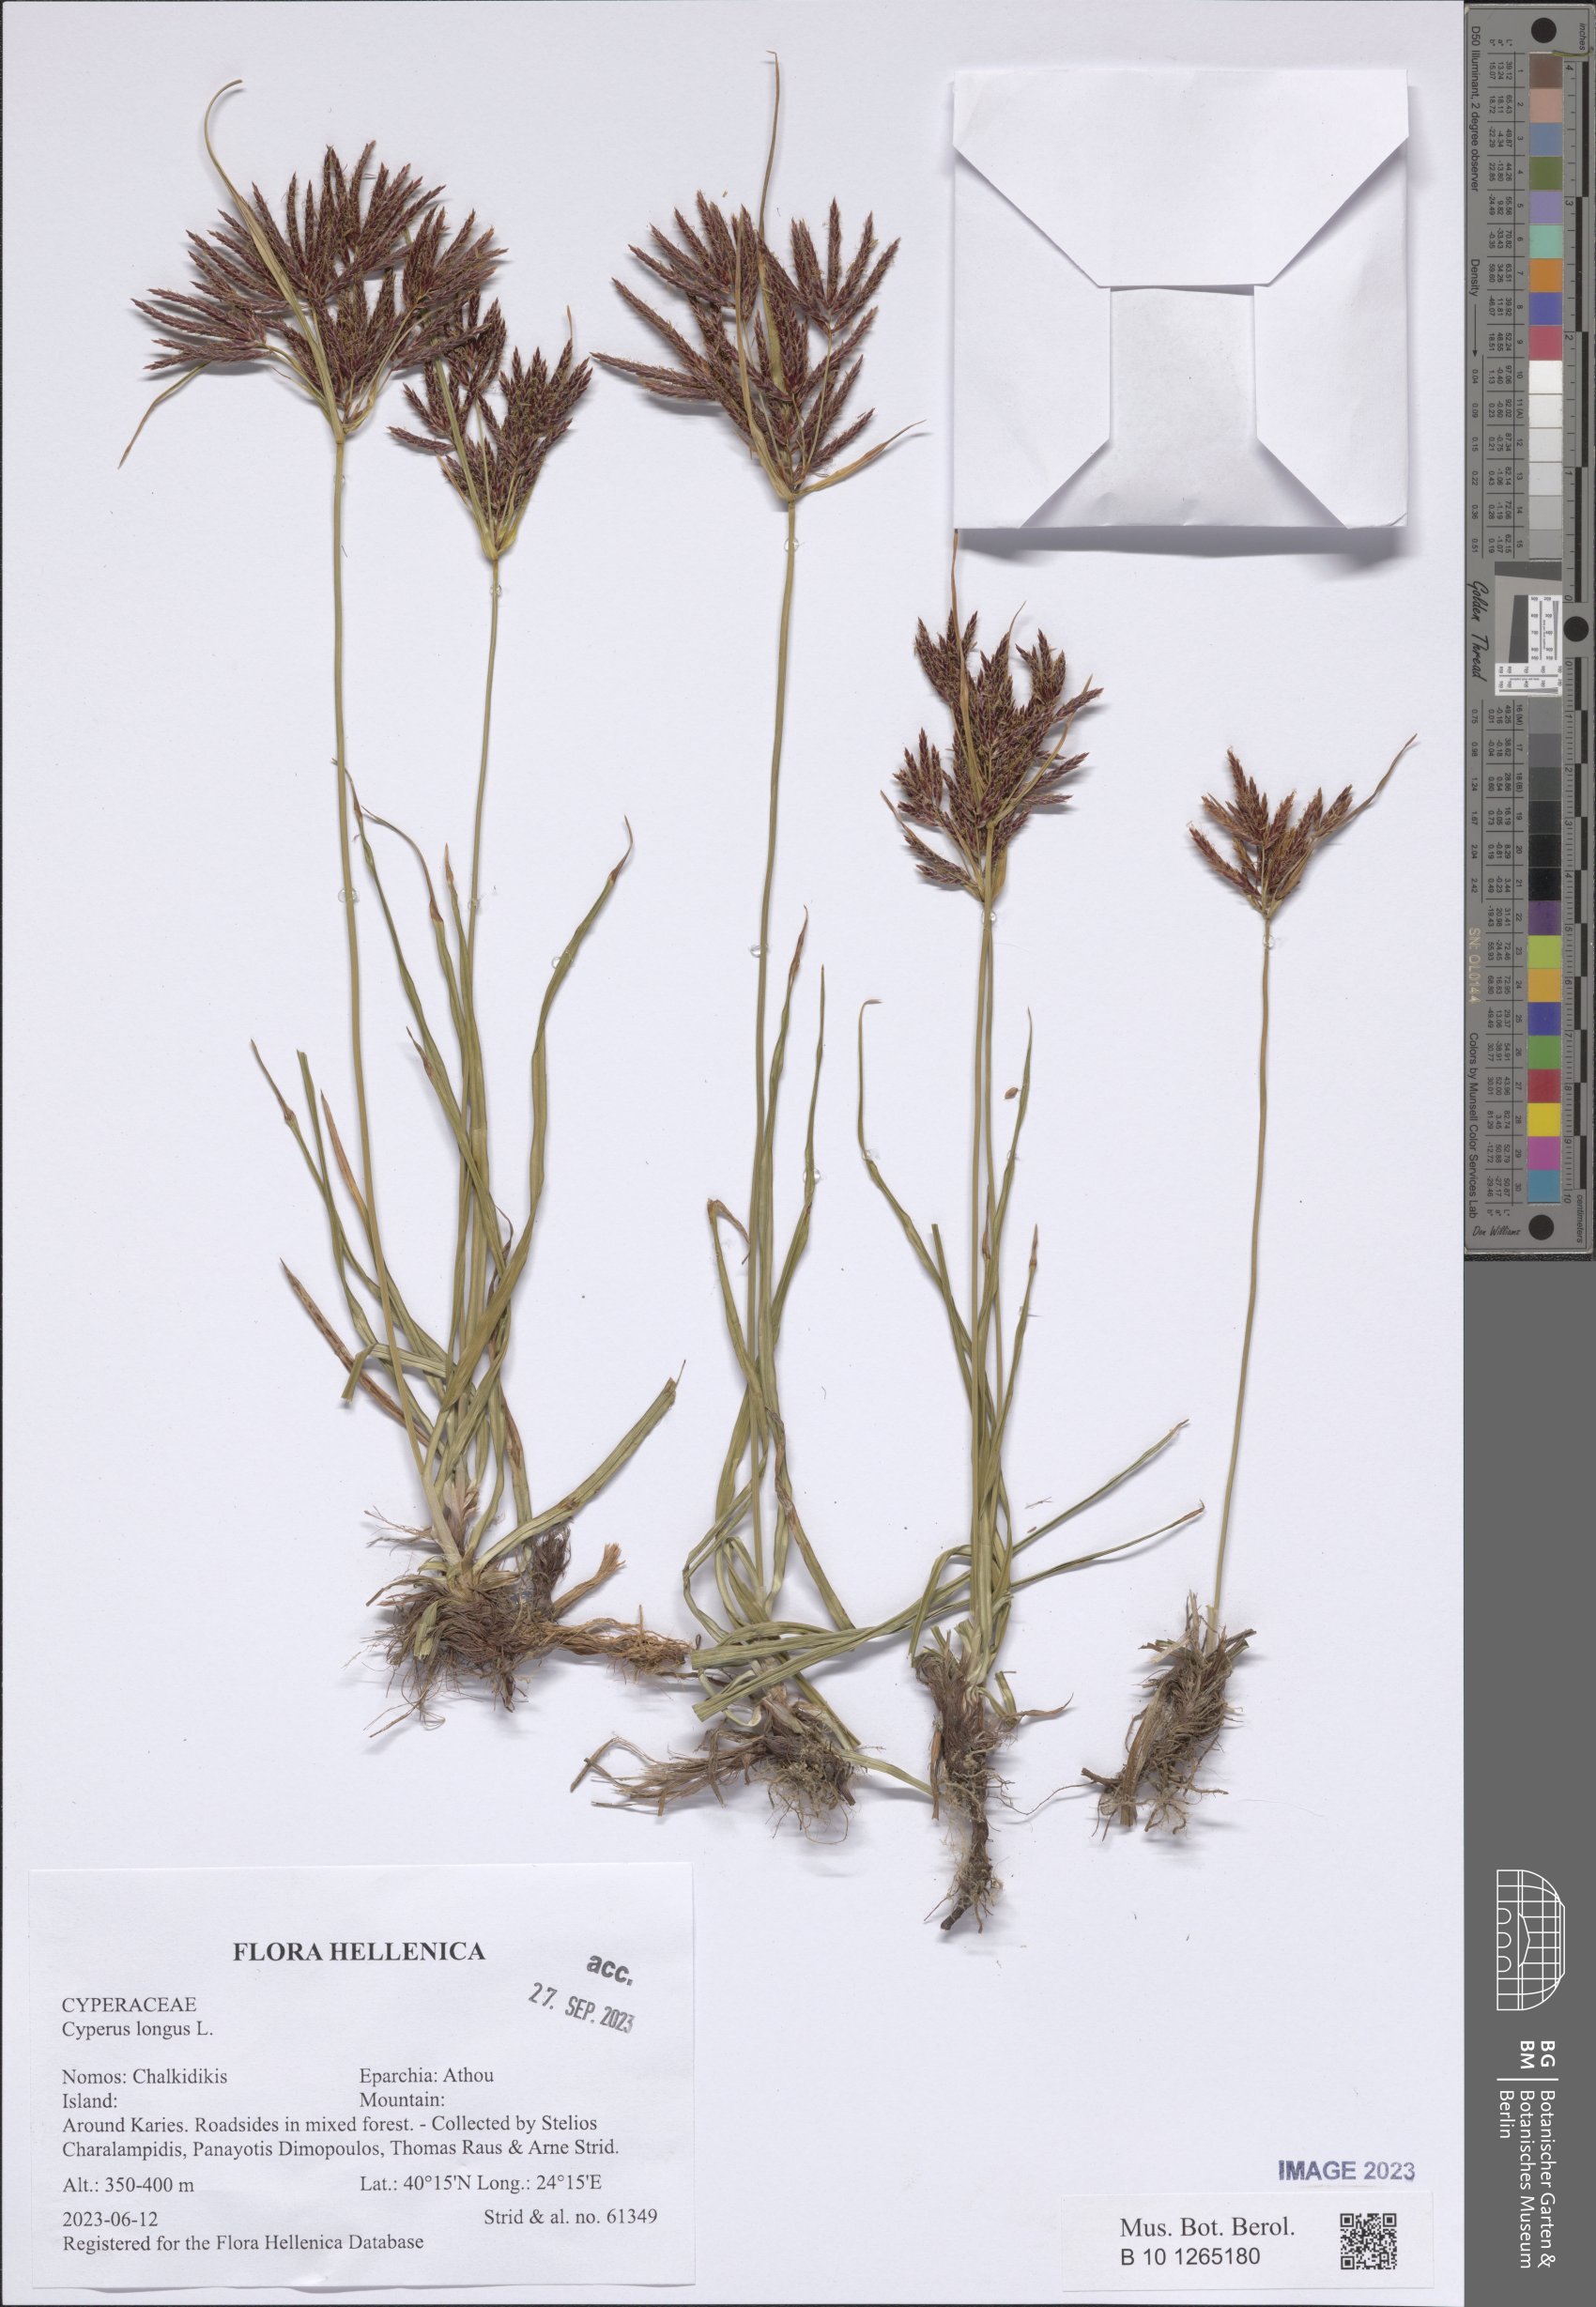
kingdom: Plantae
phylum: Tracheophyta
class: Liliopsida
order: Poales
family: Cyperaceae
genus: Cyperus
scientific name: Cyperus longus
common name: Galingale
